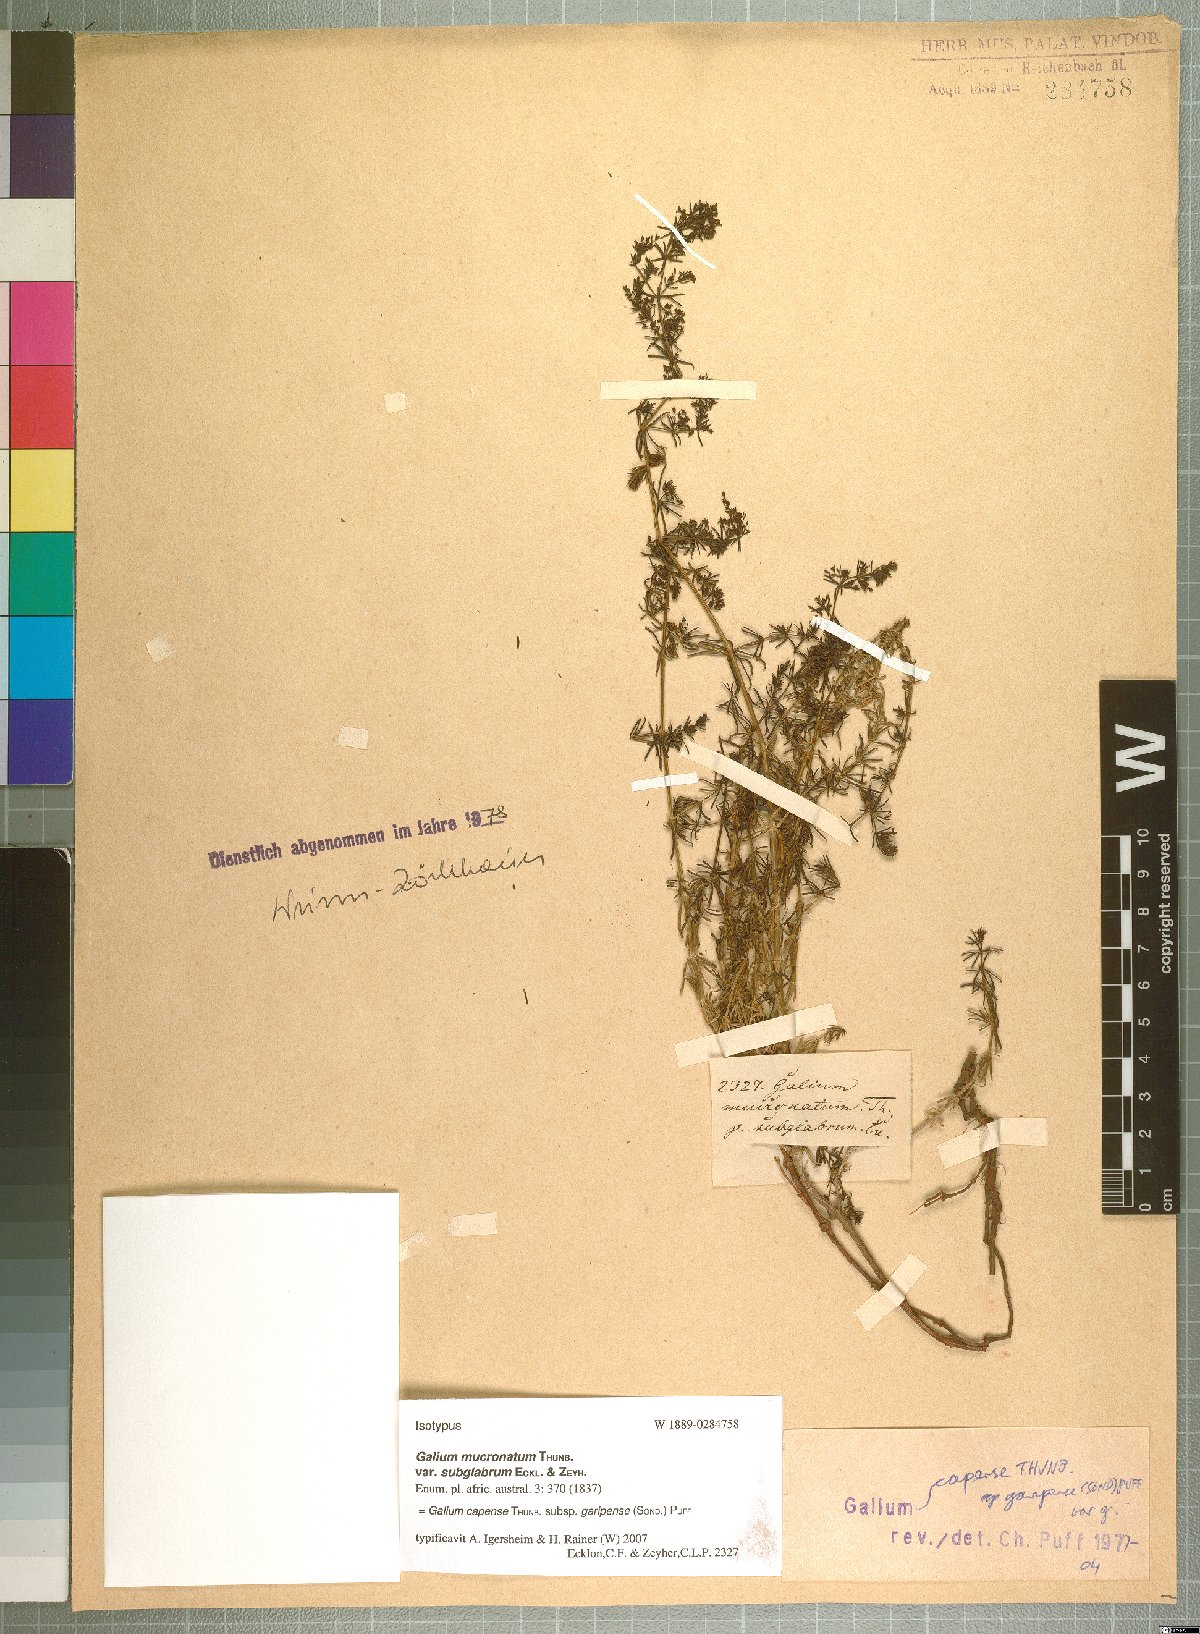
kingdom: Plantae
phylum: Tracheophyta
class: Magnoliopsida
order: Gentianales
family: Rubiaceae
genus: Galium
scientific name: Galium capense
